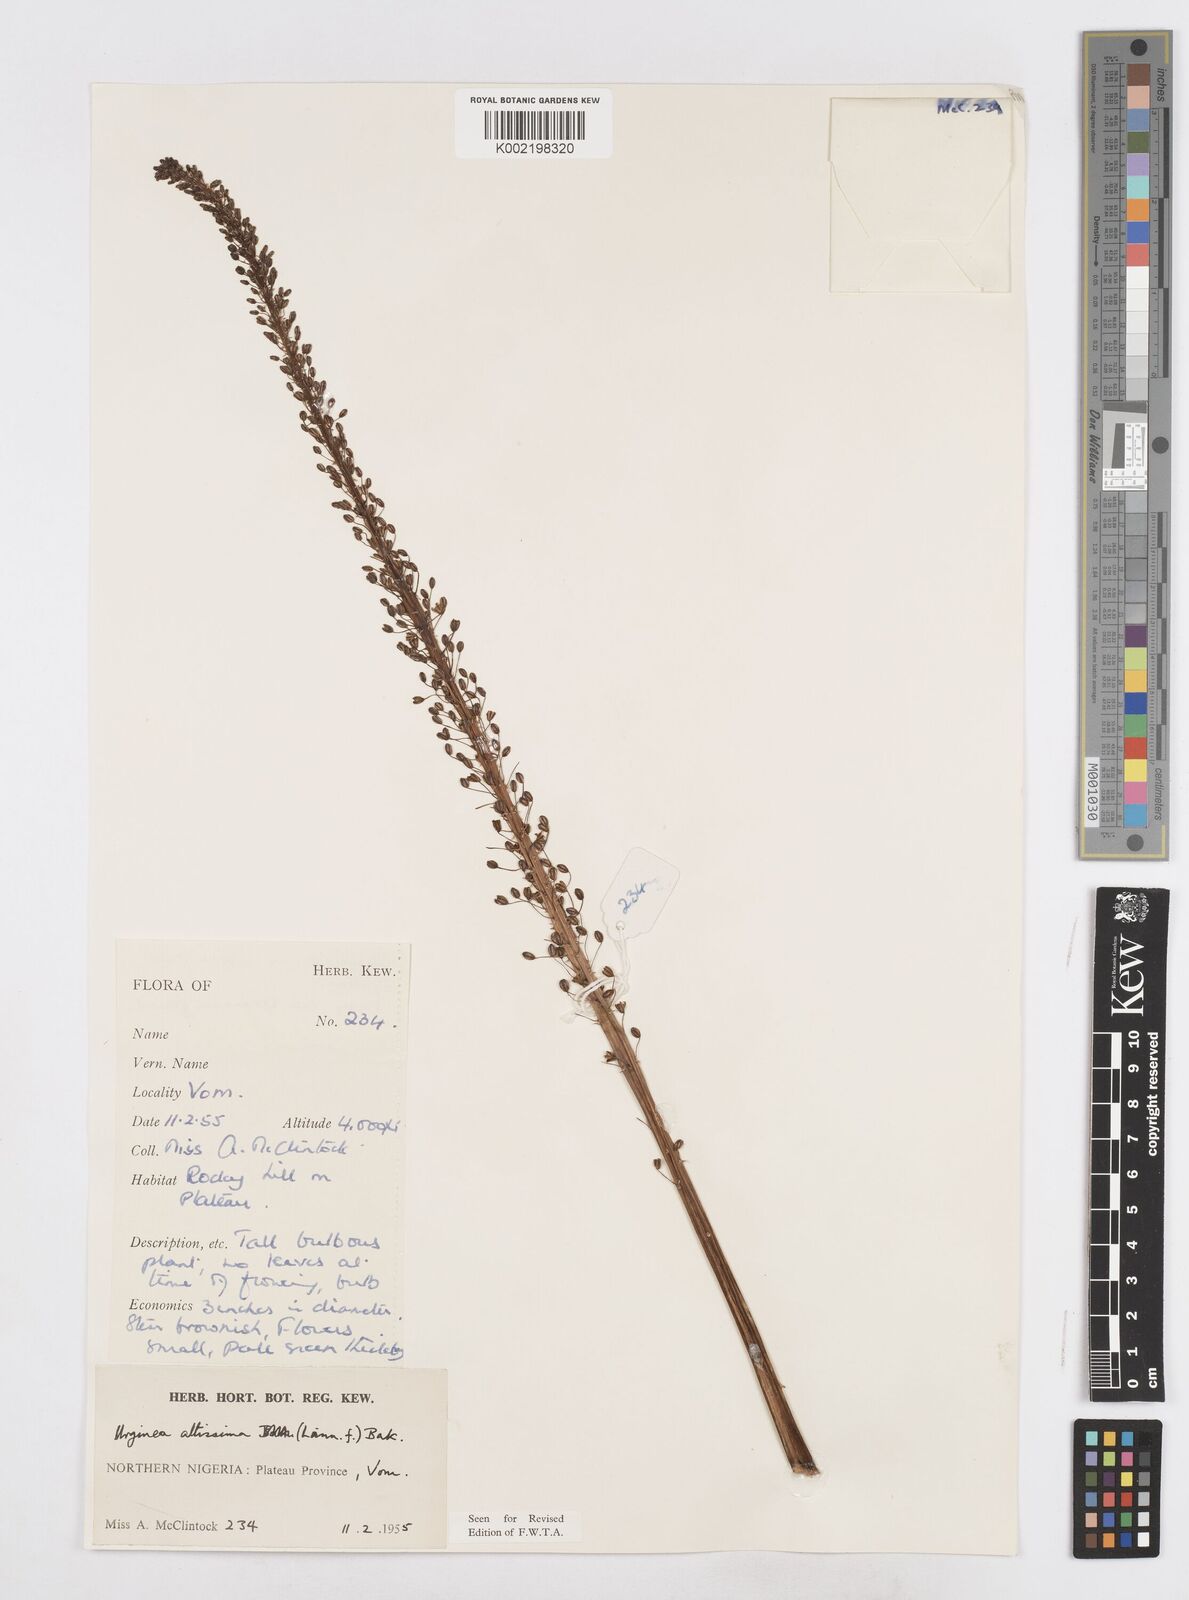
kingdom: Plantae
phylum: Tracheophyta
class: Liliopsida
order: Asparagales
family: Asparagaceae
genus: Drimia
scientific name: Drimia altissima
